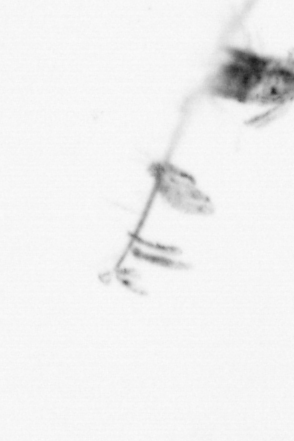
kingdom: Animalia
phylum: Arthropoda
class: Copepoda
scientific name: Copepoda
